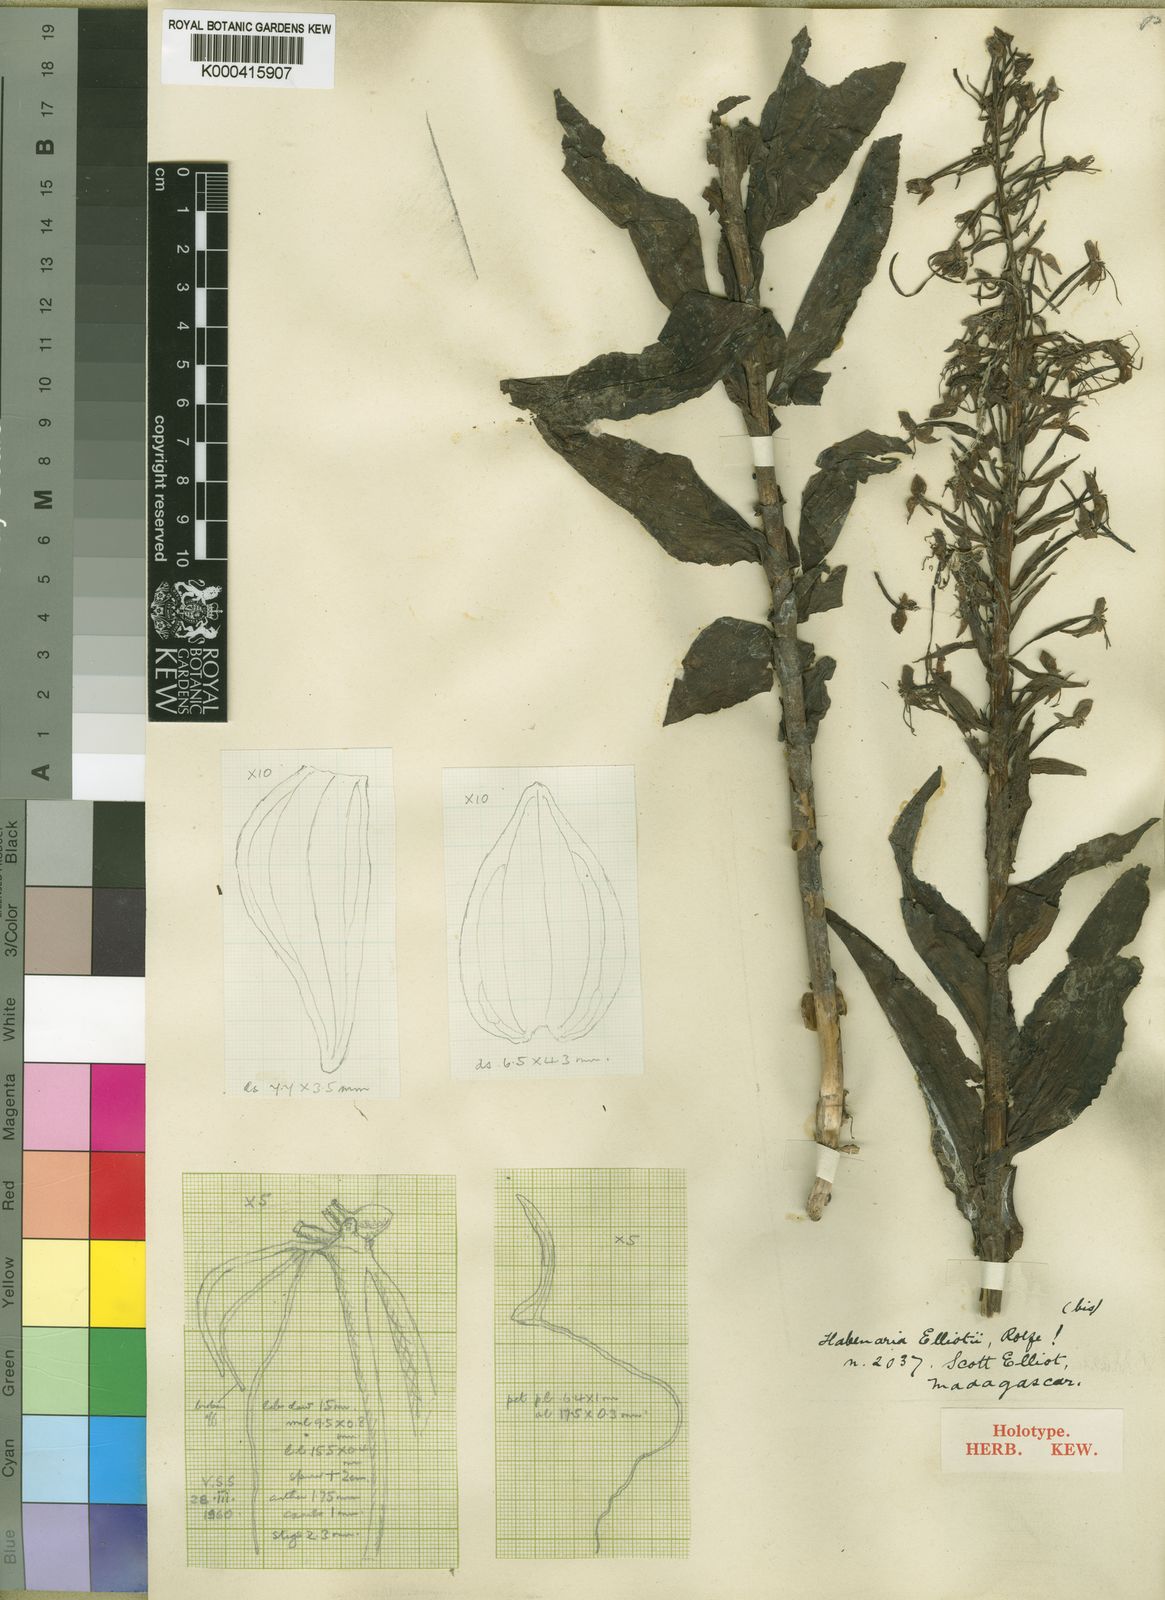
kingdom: Plantae
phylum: Tracheophyta
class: Liliopsida
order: Asparagales
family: Orchidaceae
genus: Habenaria
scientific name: Habenaria clareae
